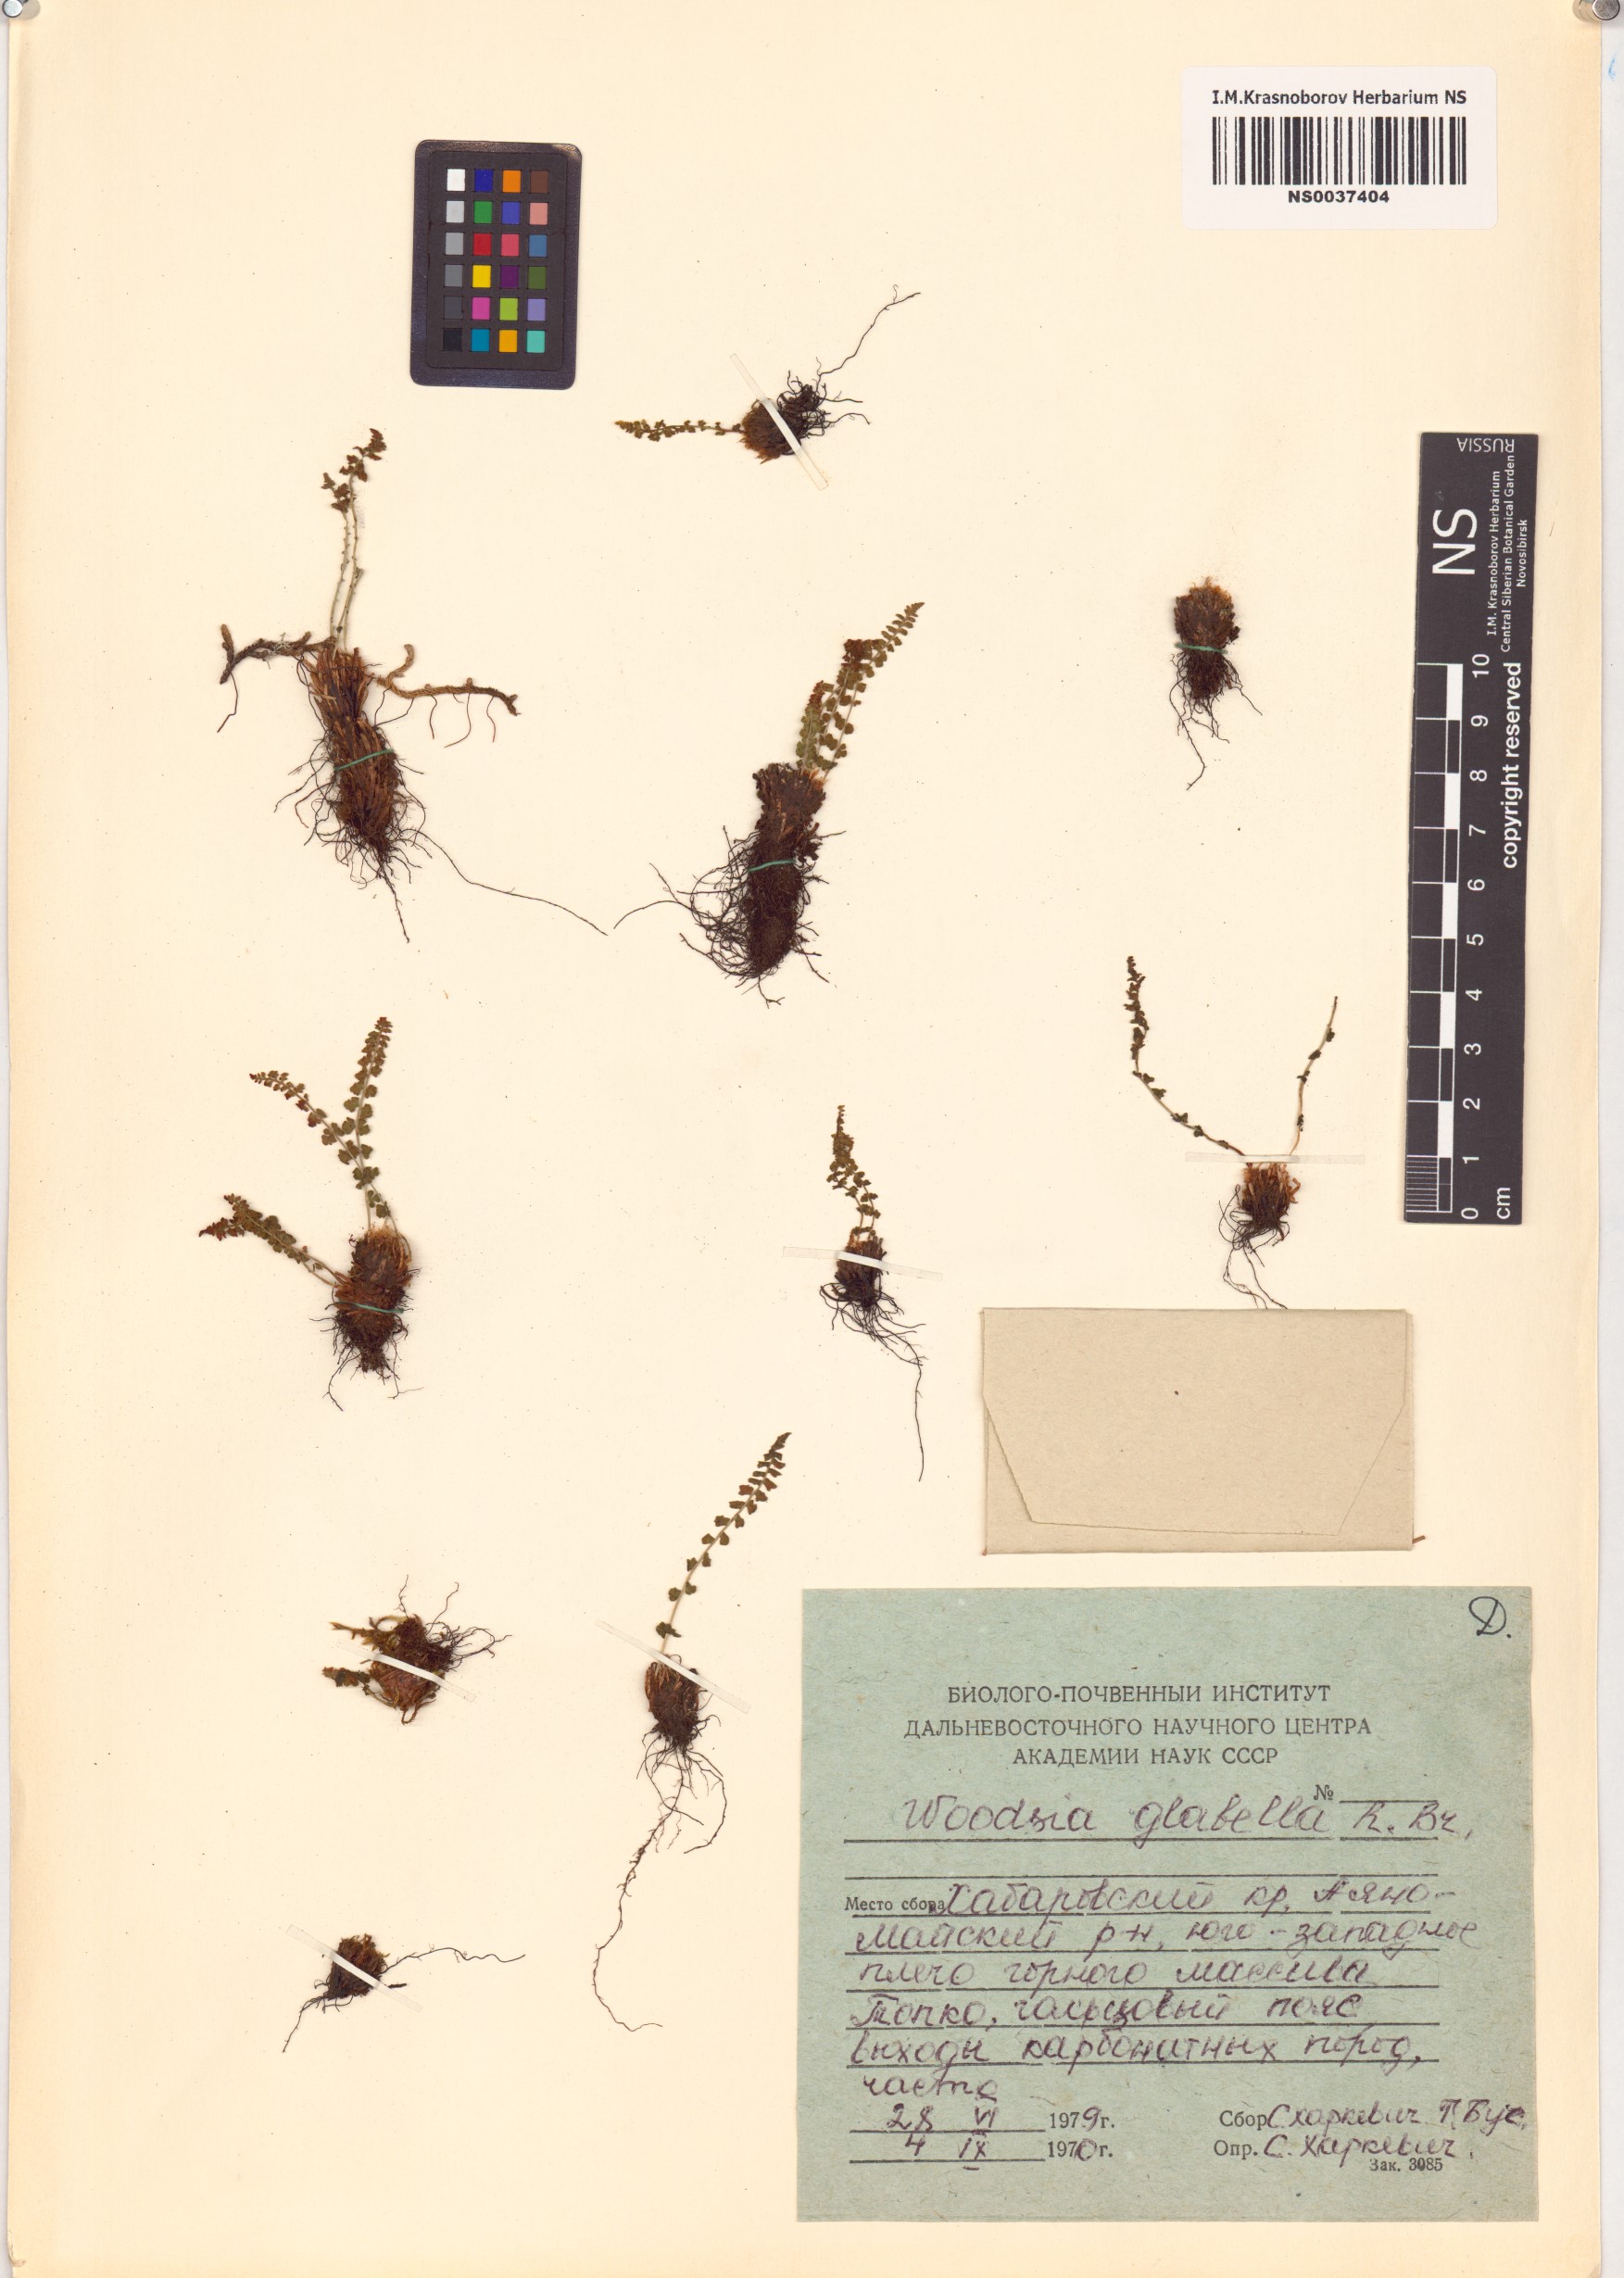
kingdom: Plantae
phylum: Tracheophyta
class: Polypodiopsida
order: Polypodiales
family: Woodsiaceae
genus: Woodsia
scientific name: Woodsia glabella
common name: Smooth woodsia
